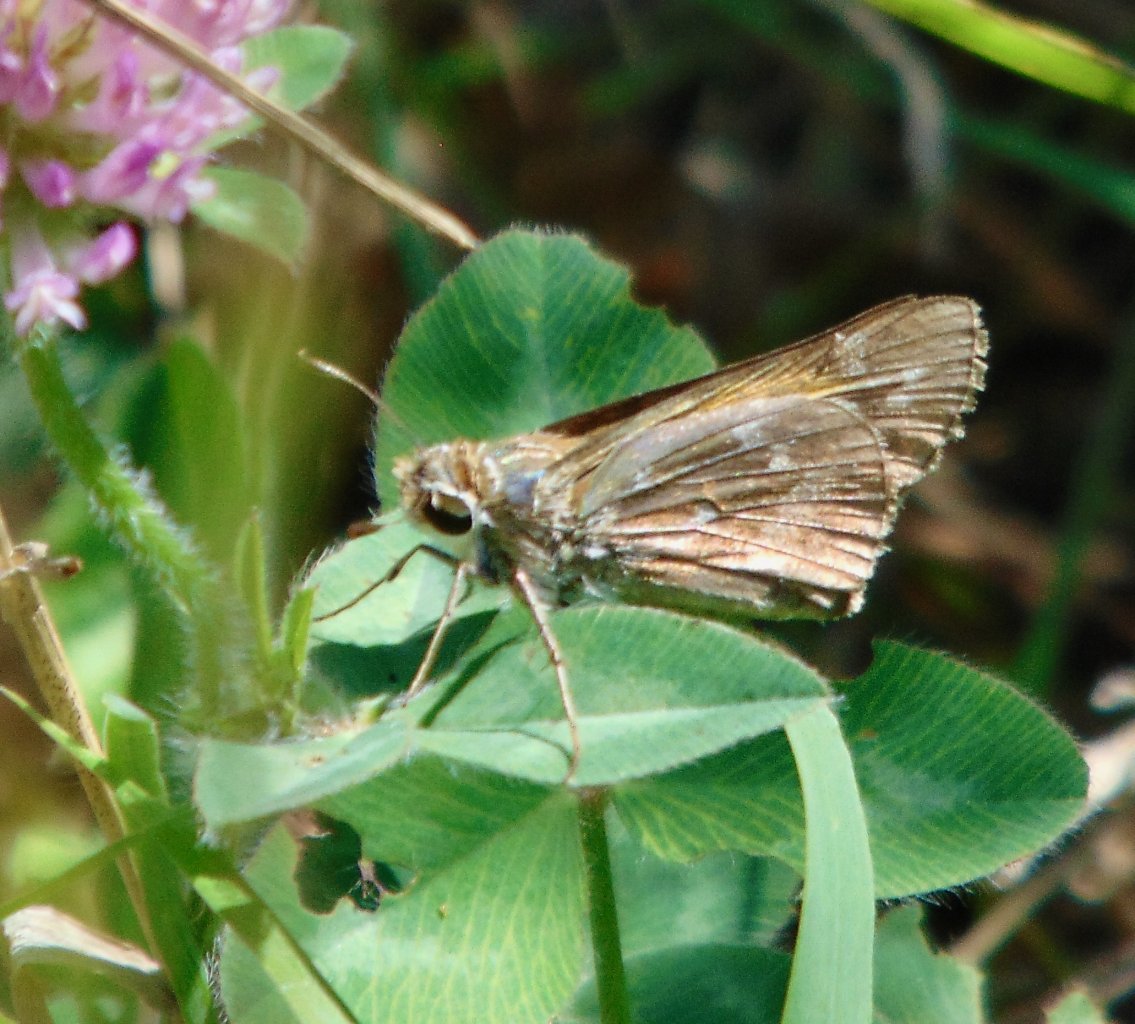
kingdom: Animalia
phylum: Arthropoda
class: Insecta
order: Lepidoptera
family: Hesperiidae
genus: Atalopedes
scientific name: Atalopedes campestris
